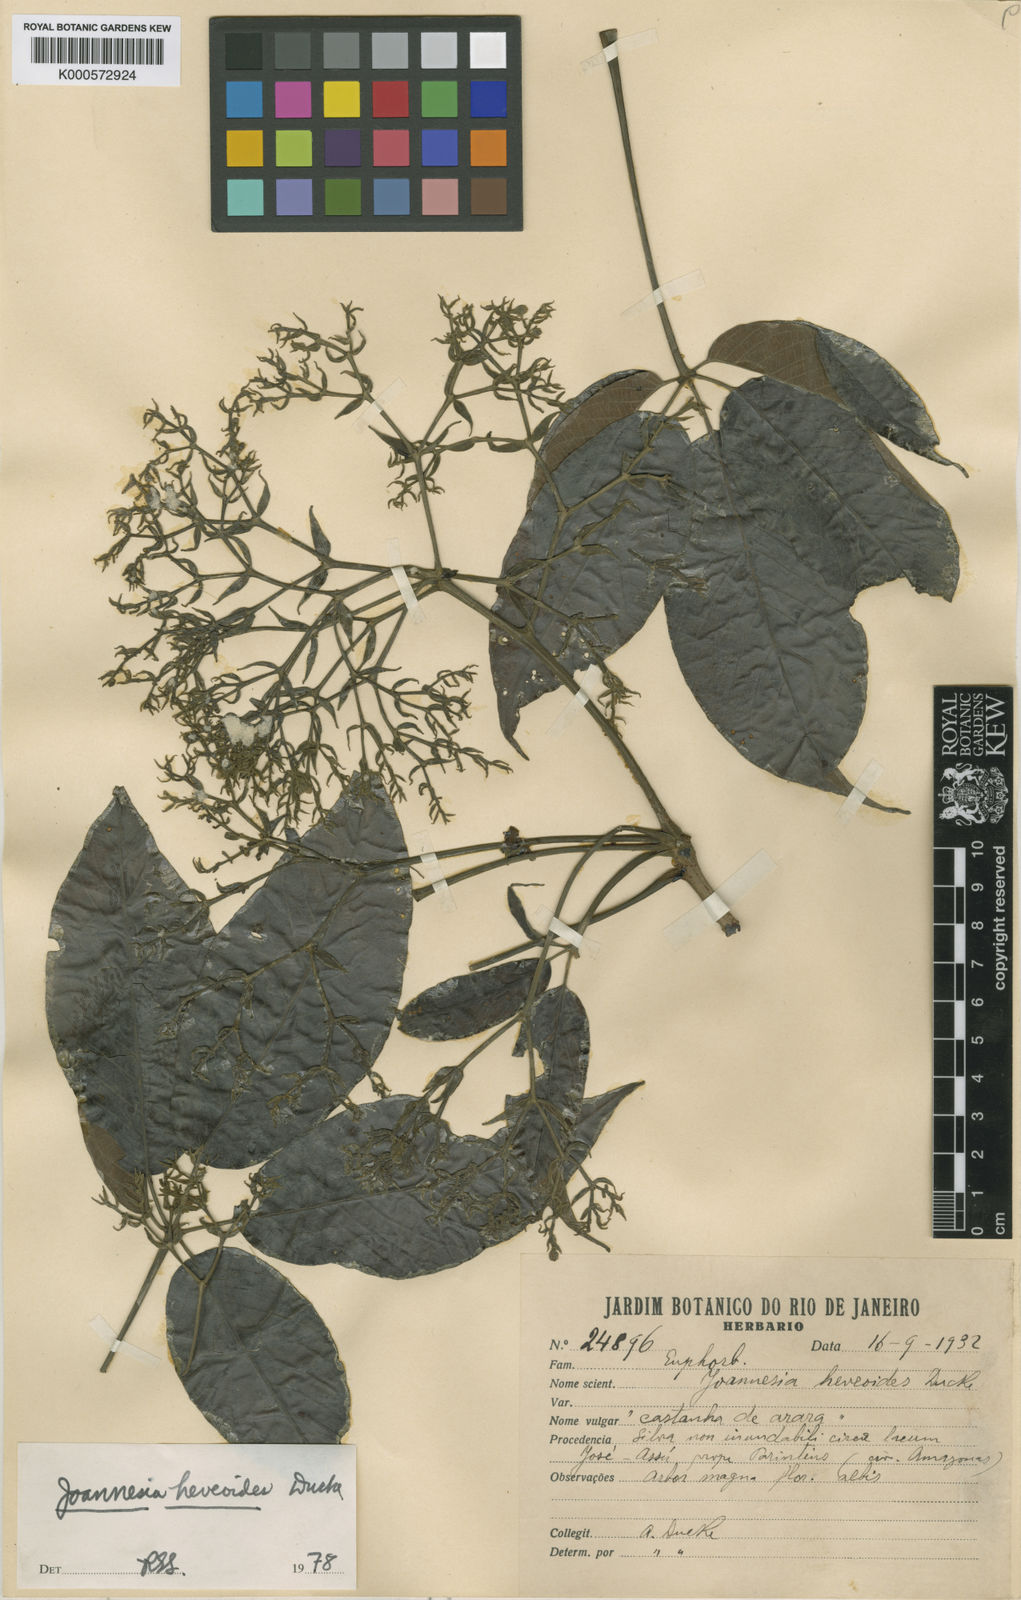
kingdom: Plantae
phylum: Tracheophyta
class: Magnoliopsida
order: Malpighiales
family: Euphorbiaceae
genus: Joannesia
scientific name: Joannesia heveoides
